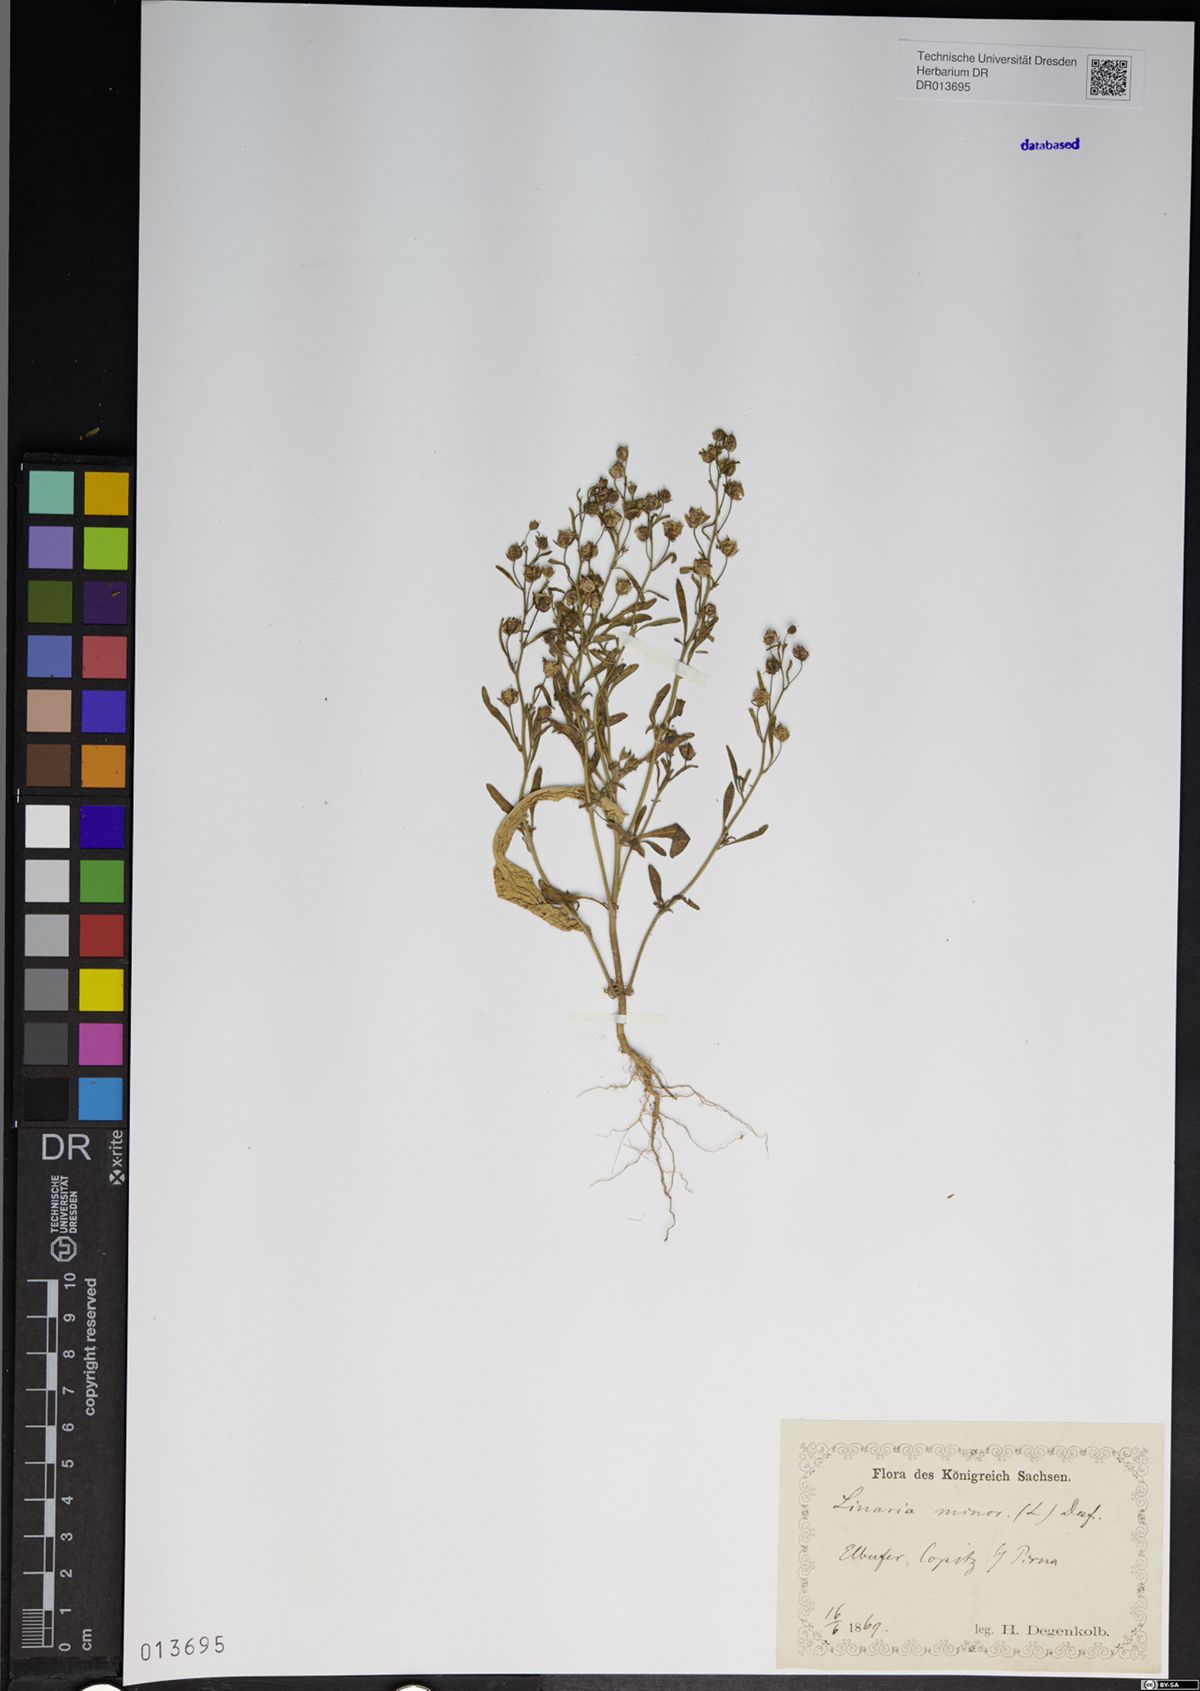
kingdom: Plantae
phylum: Tracheophyta
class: Magnoliopsida
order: Lamiales
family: Plantaginaceae
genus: Chaenorhinum
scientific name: Chaenorhinum minus
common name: Dwarf snapdragon
